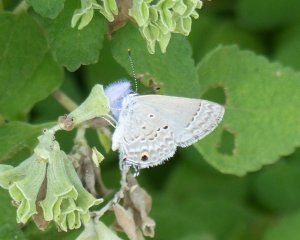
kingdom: Animalia
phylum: Arthropoda
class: Insecta
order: Lepidoptera
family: Lycaenidae
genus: Callicista
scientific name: Callicista columella
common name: Mallow Scrub-Hairstreak
